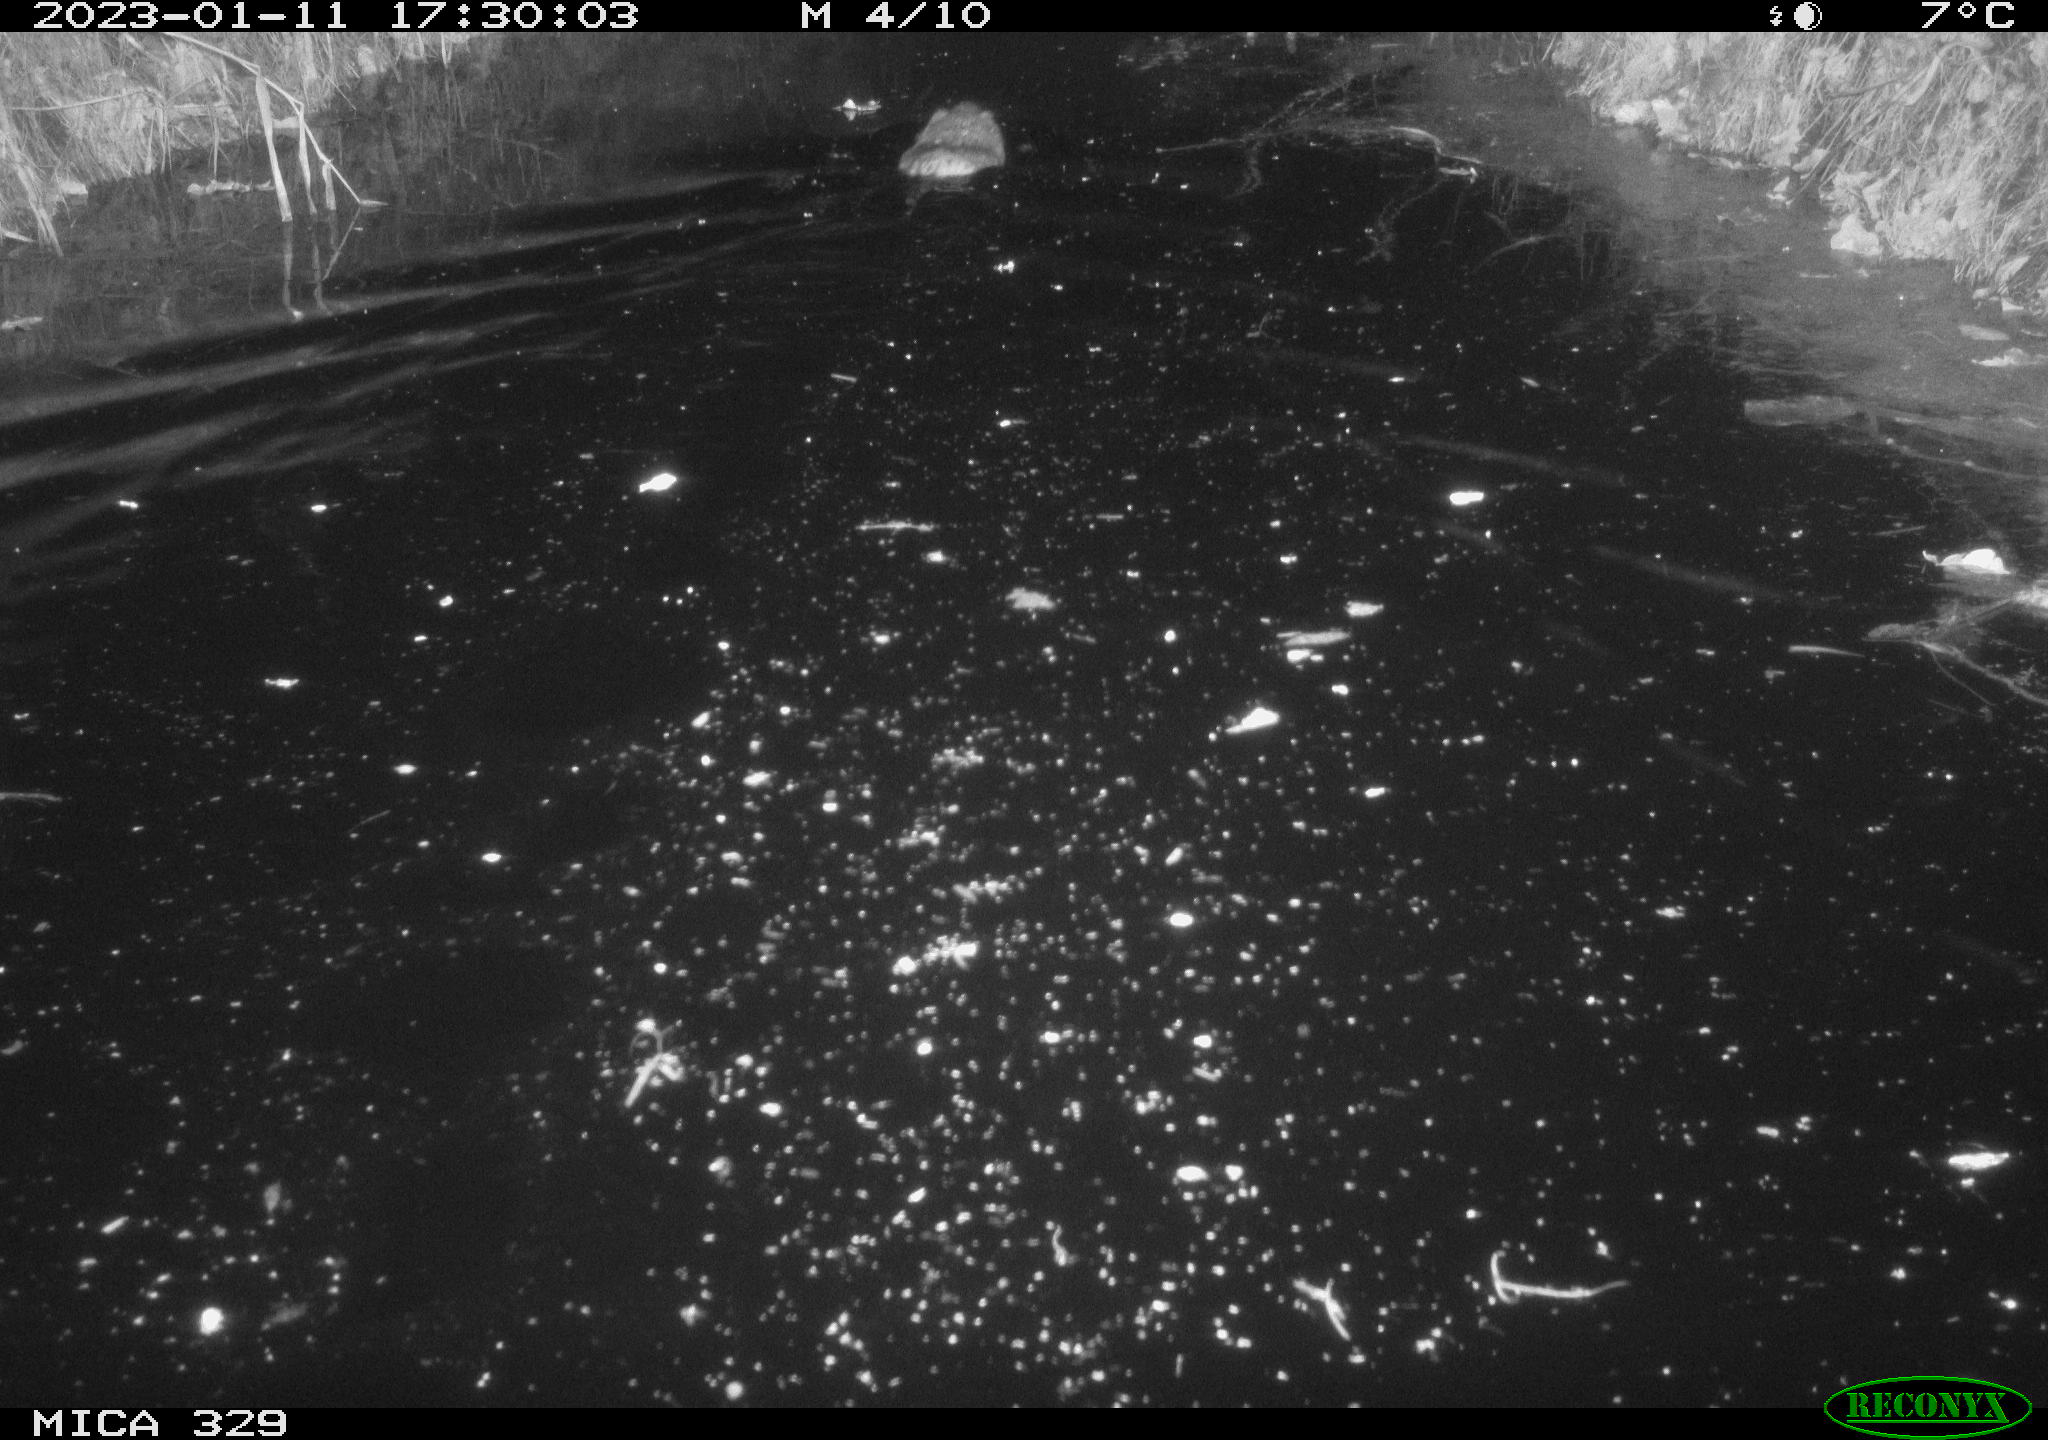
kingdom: Animalia
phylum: Chordata
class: Mammalia
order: Rodentia
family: Cricetidae
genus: Ondatra
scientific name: Ondatra zibethicus
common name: Muskrat
